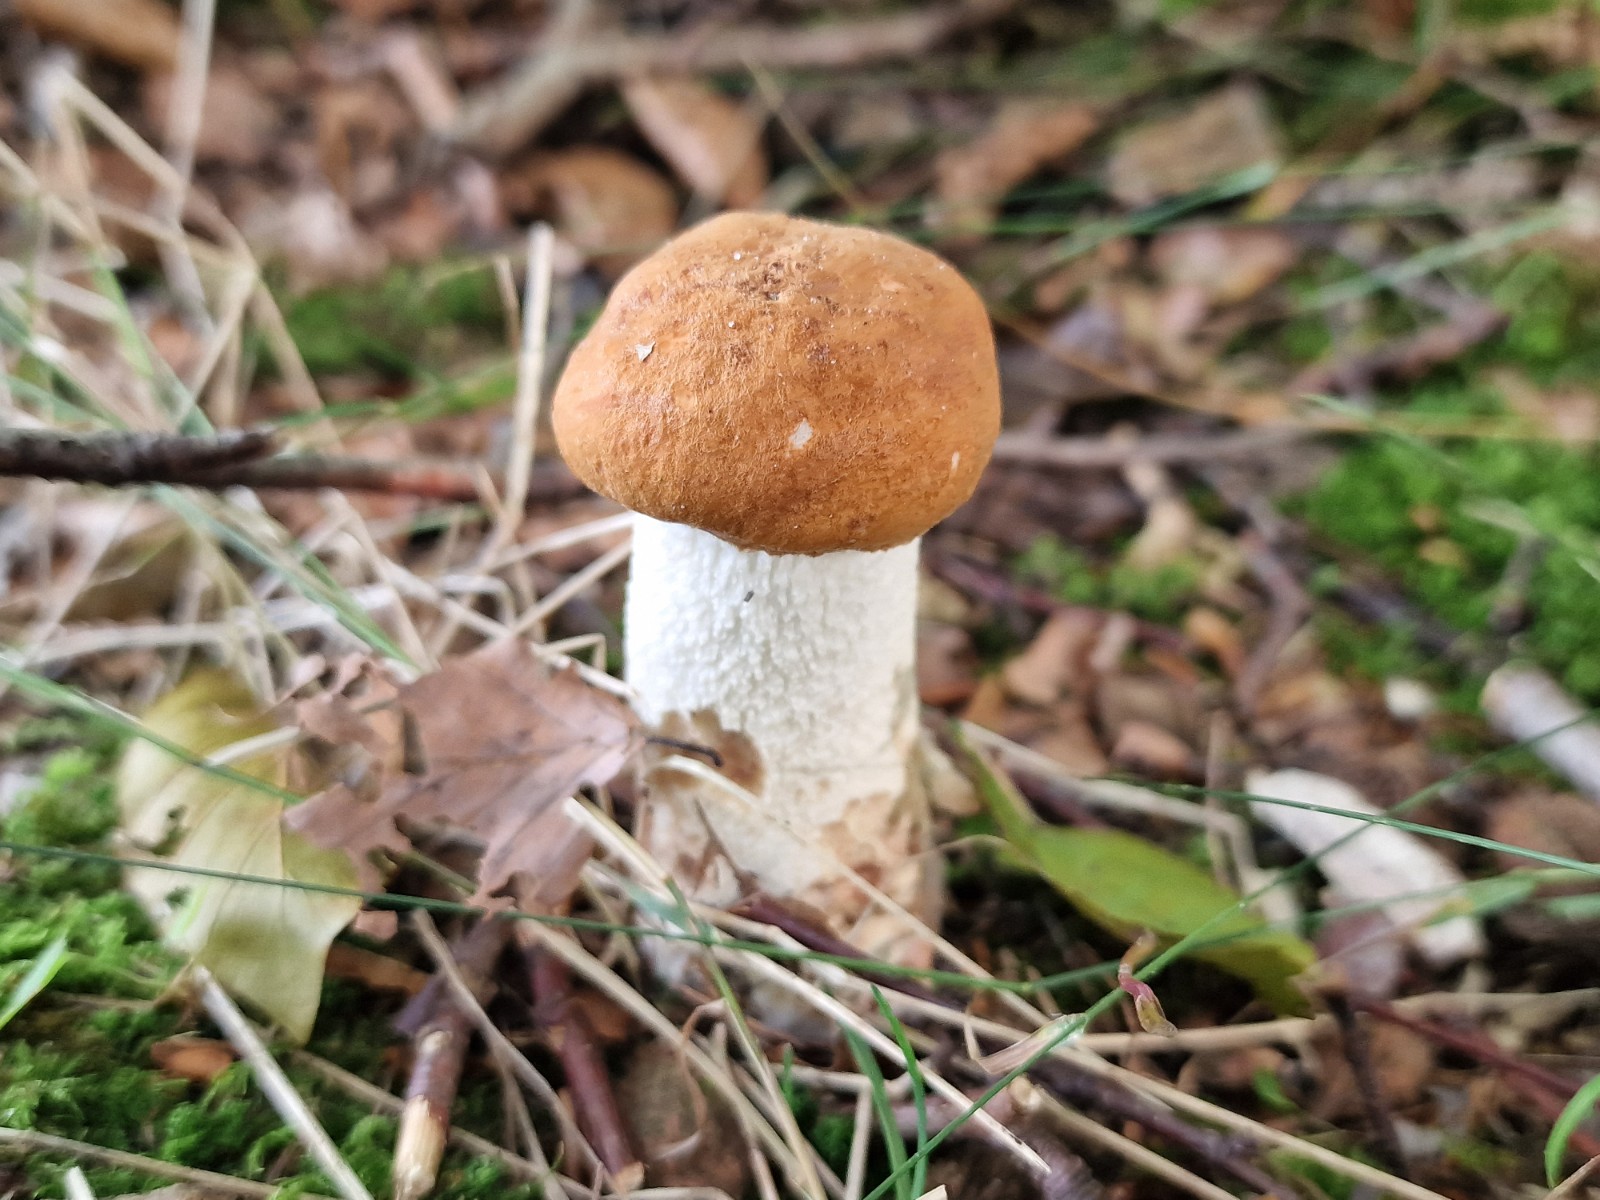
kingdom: Fungi
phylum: Basidiomycota
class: Agaricomycetes
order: Boletales
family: Boletaceae
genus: Leccinum
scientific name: Leccinum albostipitatum
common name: aspe-skælrørhat
